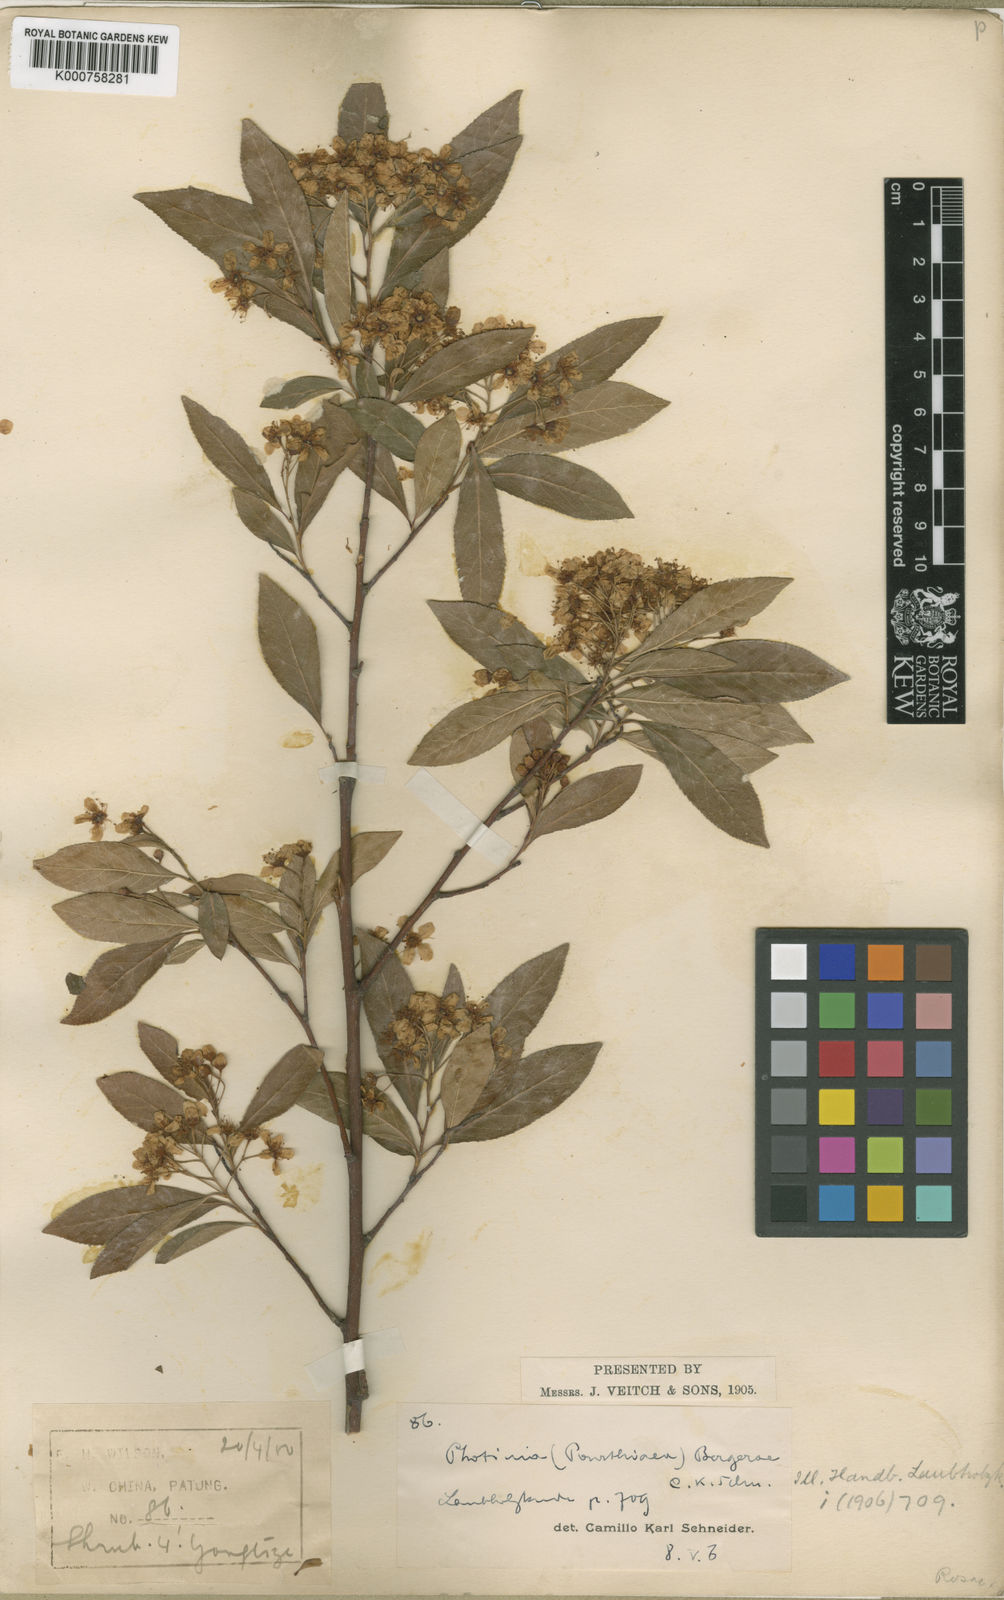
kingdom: Plantae
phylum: Tracheophyta
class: Magnoliopsida
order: Rosales
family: Rosaceae
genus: Pourthiaea
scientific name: Pourthiaea bergerae
